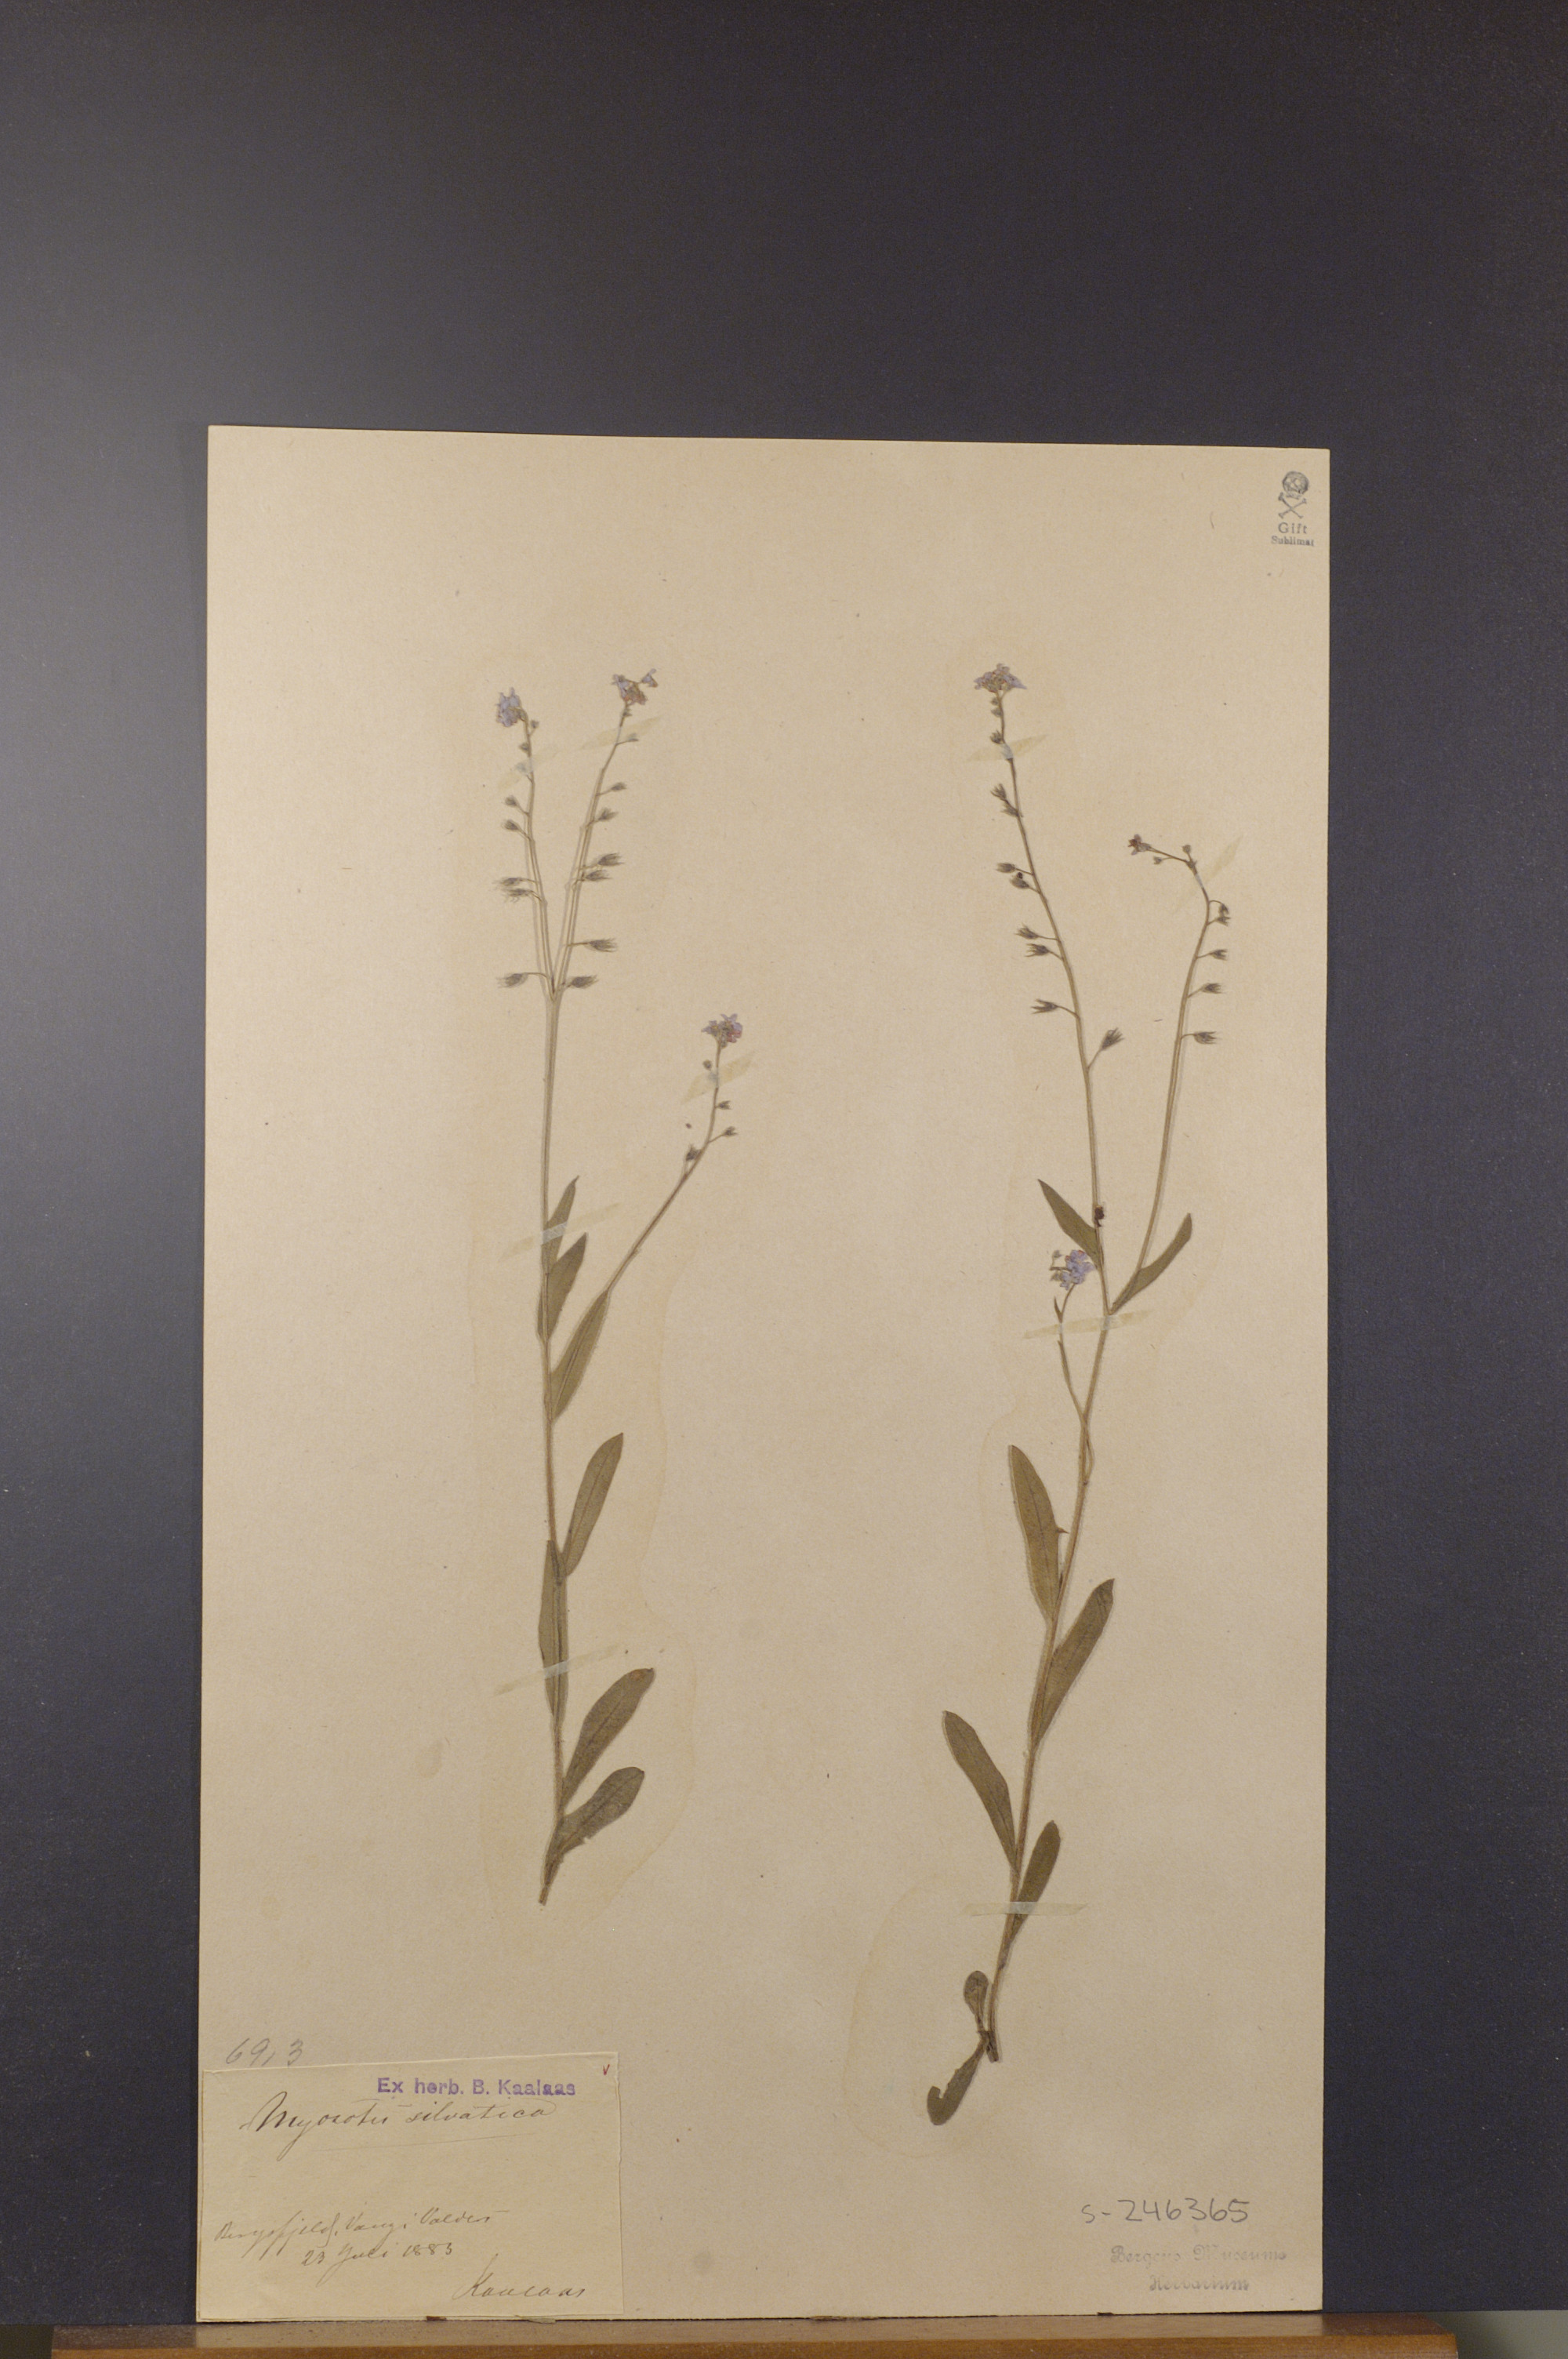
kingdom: Plantae
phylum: Tracheophyta
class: Magnoliopsida
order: Boraginales
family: Boraginaceae
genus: Myosotis
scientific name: Myosotis decumbens
